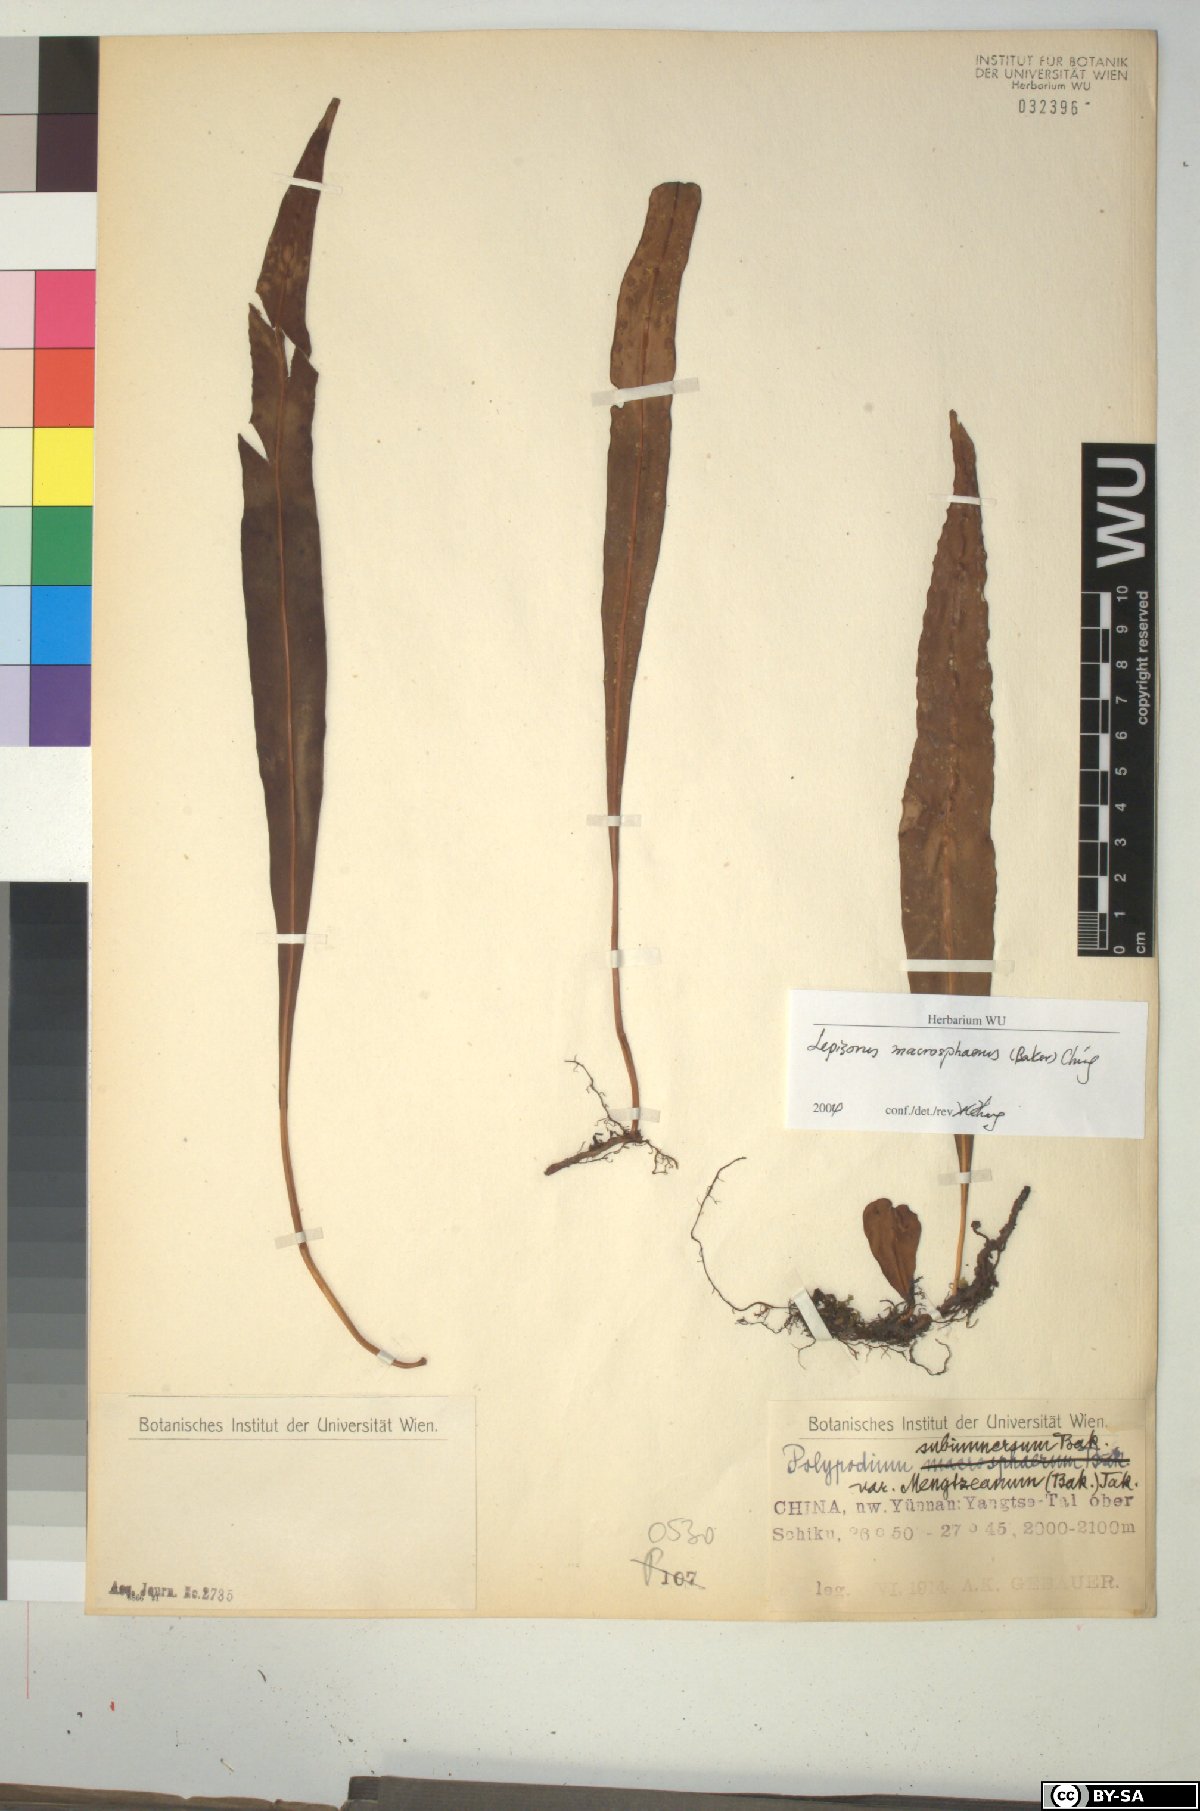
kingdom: Plantae
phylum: Tracheophyta
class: Polypodiopsida
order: Polypodiales
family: Polypodiaceae
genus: Lepisorus
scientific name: Lepisorus macrosphaerus
